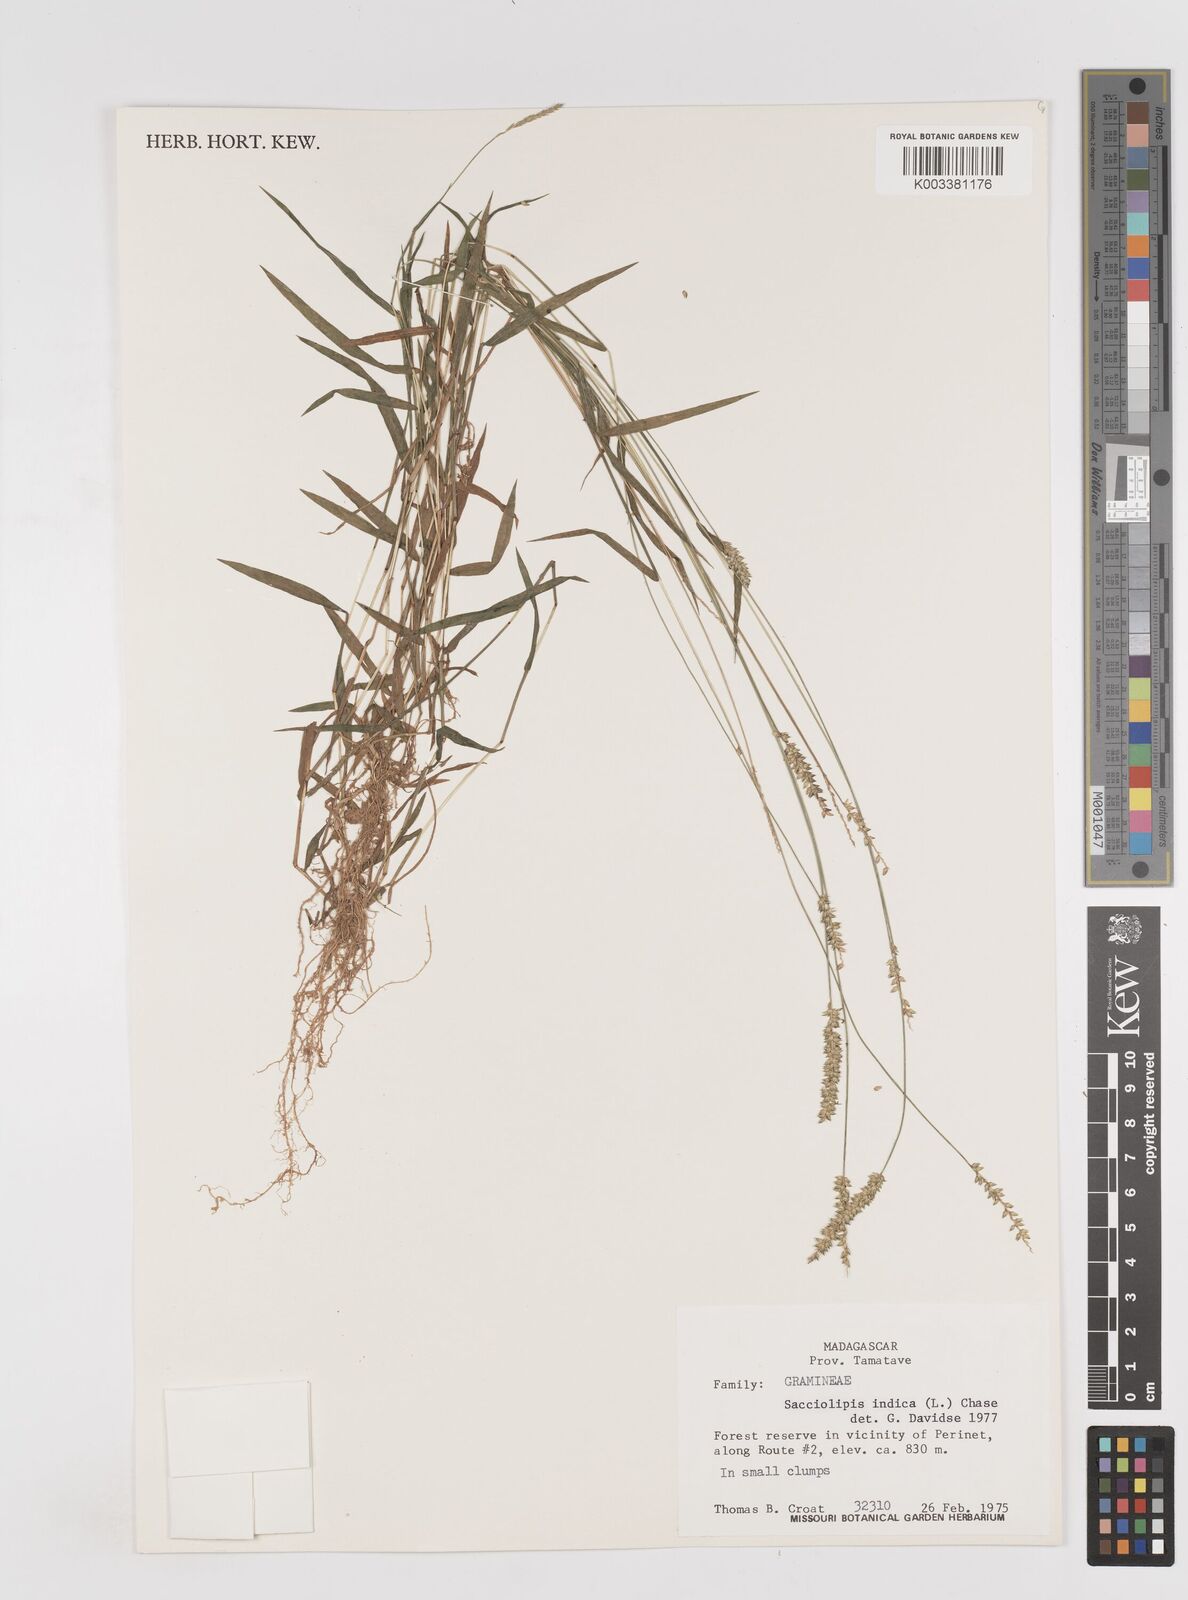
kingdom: Plantae
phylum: Tracheophyta
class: Liliopsida
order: Poales
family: Poaceae
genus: Sacciolepis
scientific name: Sacciolepis indica
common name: Glenwoodgrass
